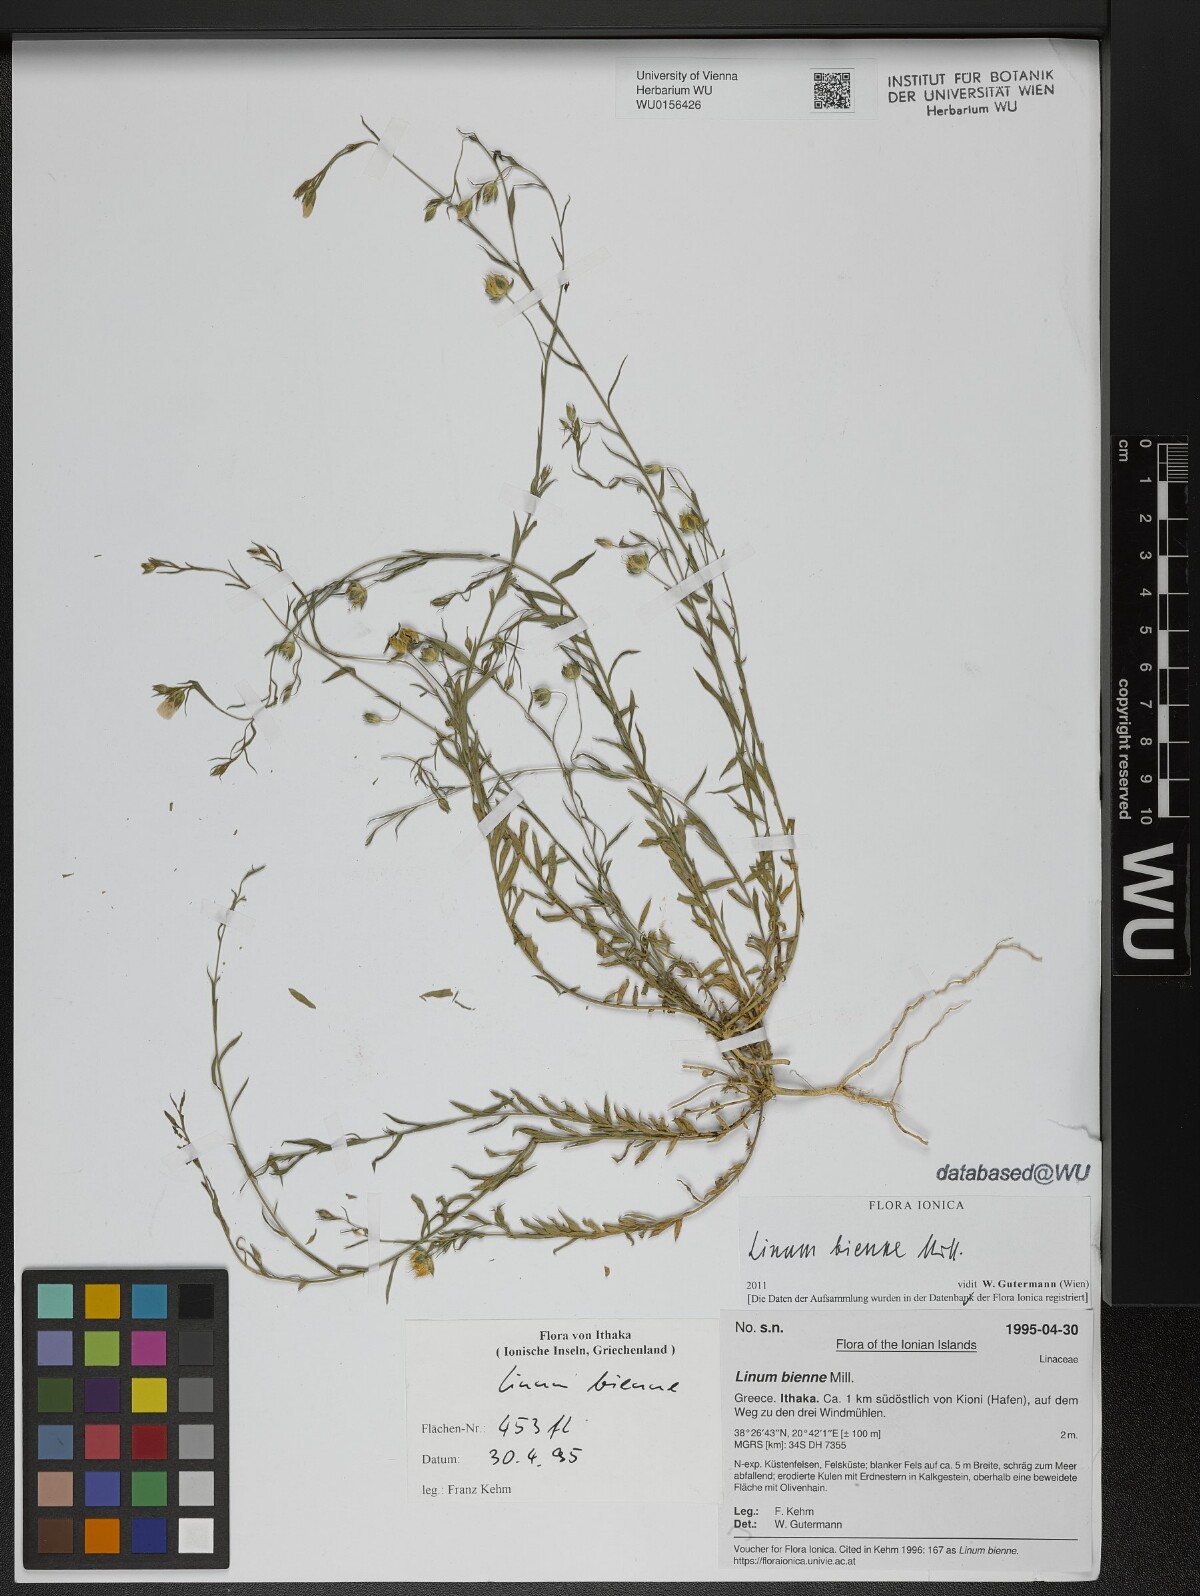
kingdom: Plantae
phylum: Tracheophyta
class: Magnoliopsida
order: Malpighiales
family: Linaceae
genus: Linum
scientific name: Linum bienne
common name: Pale flax
